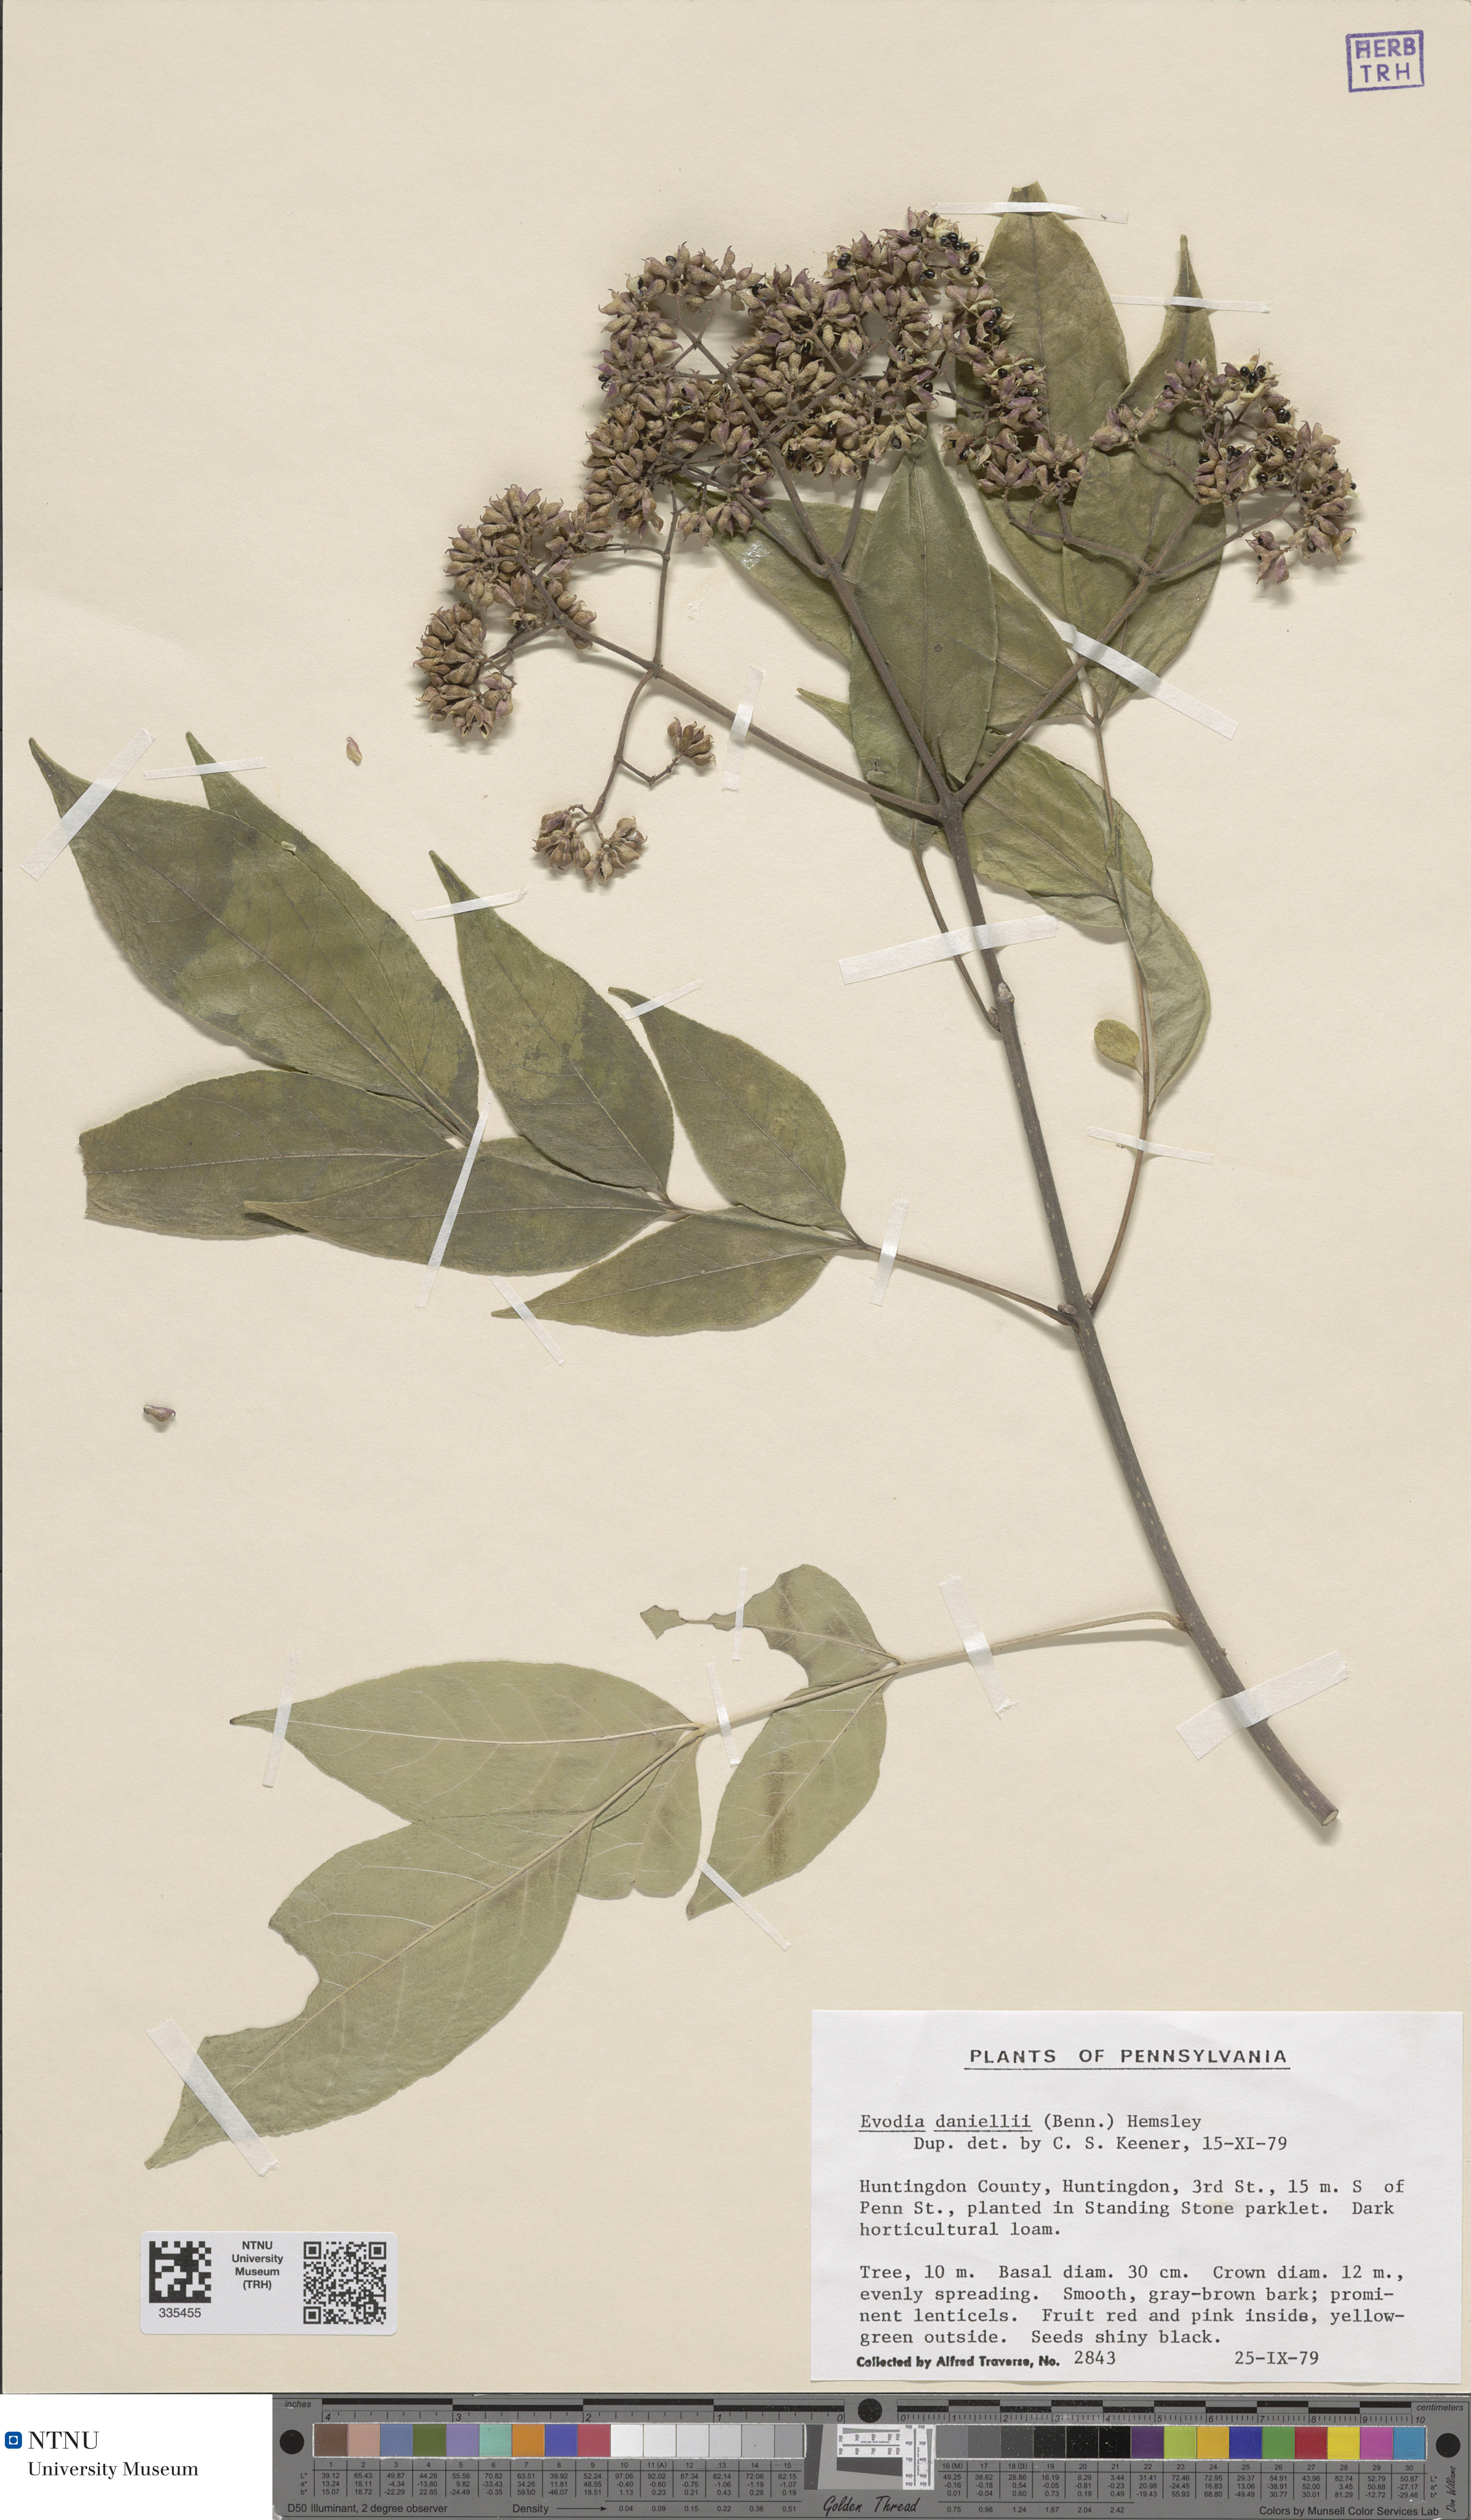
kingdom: Plantae
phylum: Tracheophyta
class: Magnoliopsida
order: Sapindales
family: Rutaceae
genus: Tetradium
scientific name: Tetradium daniellii
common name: Bee-bee tree
